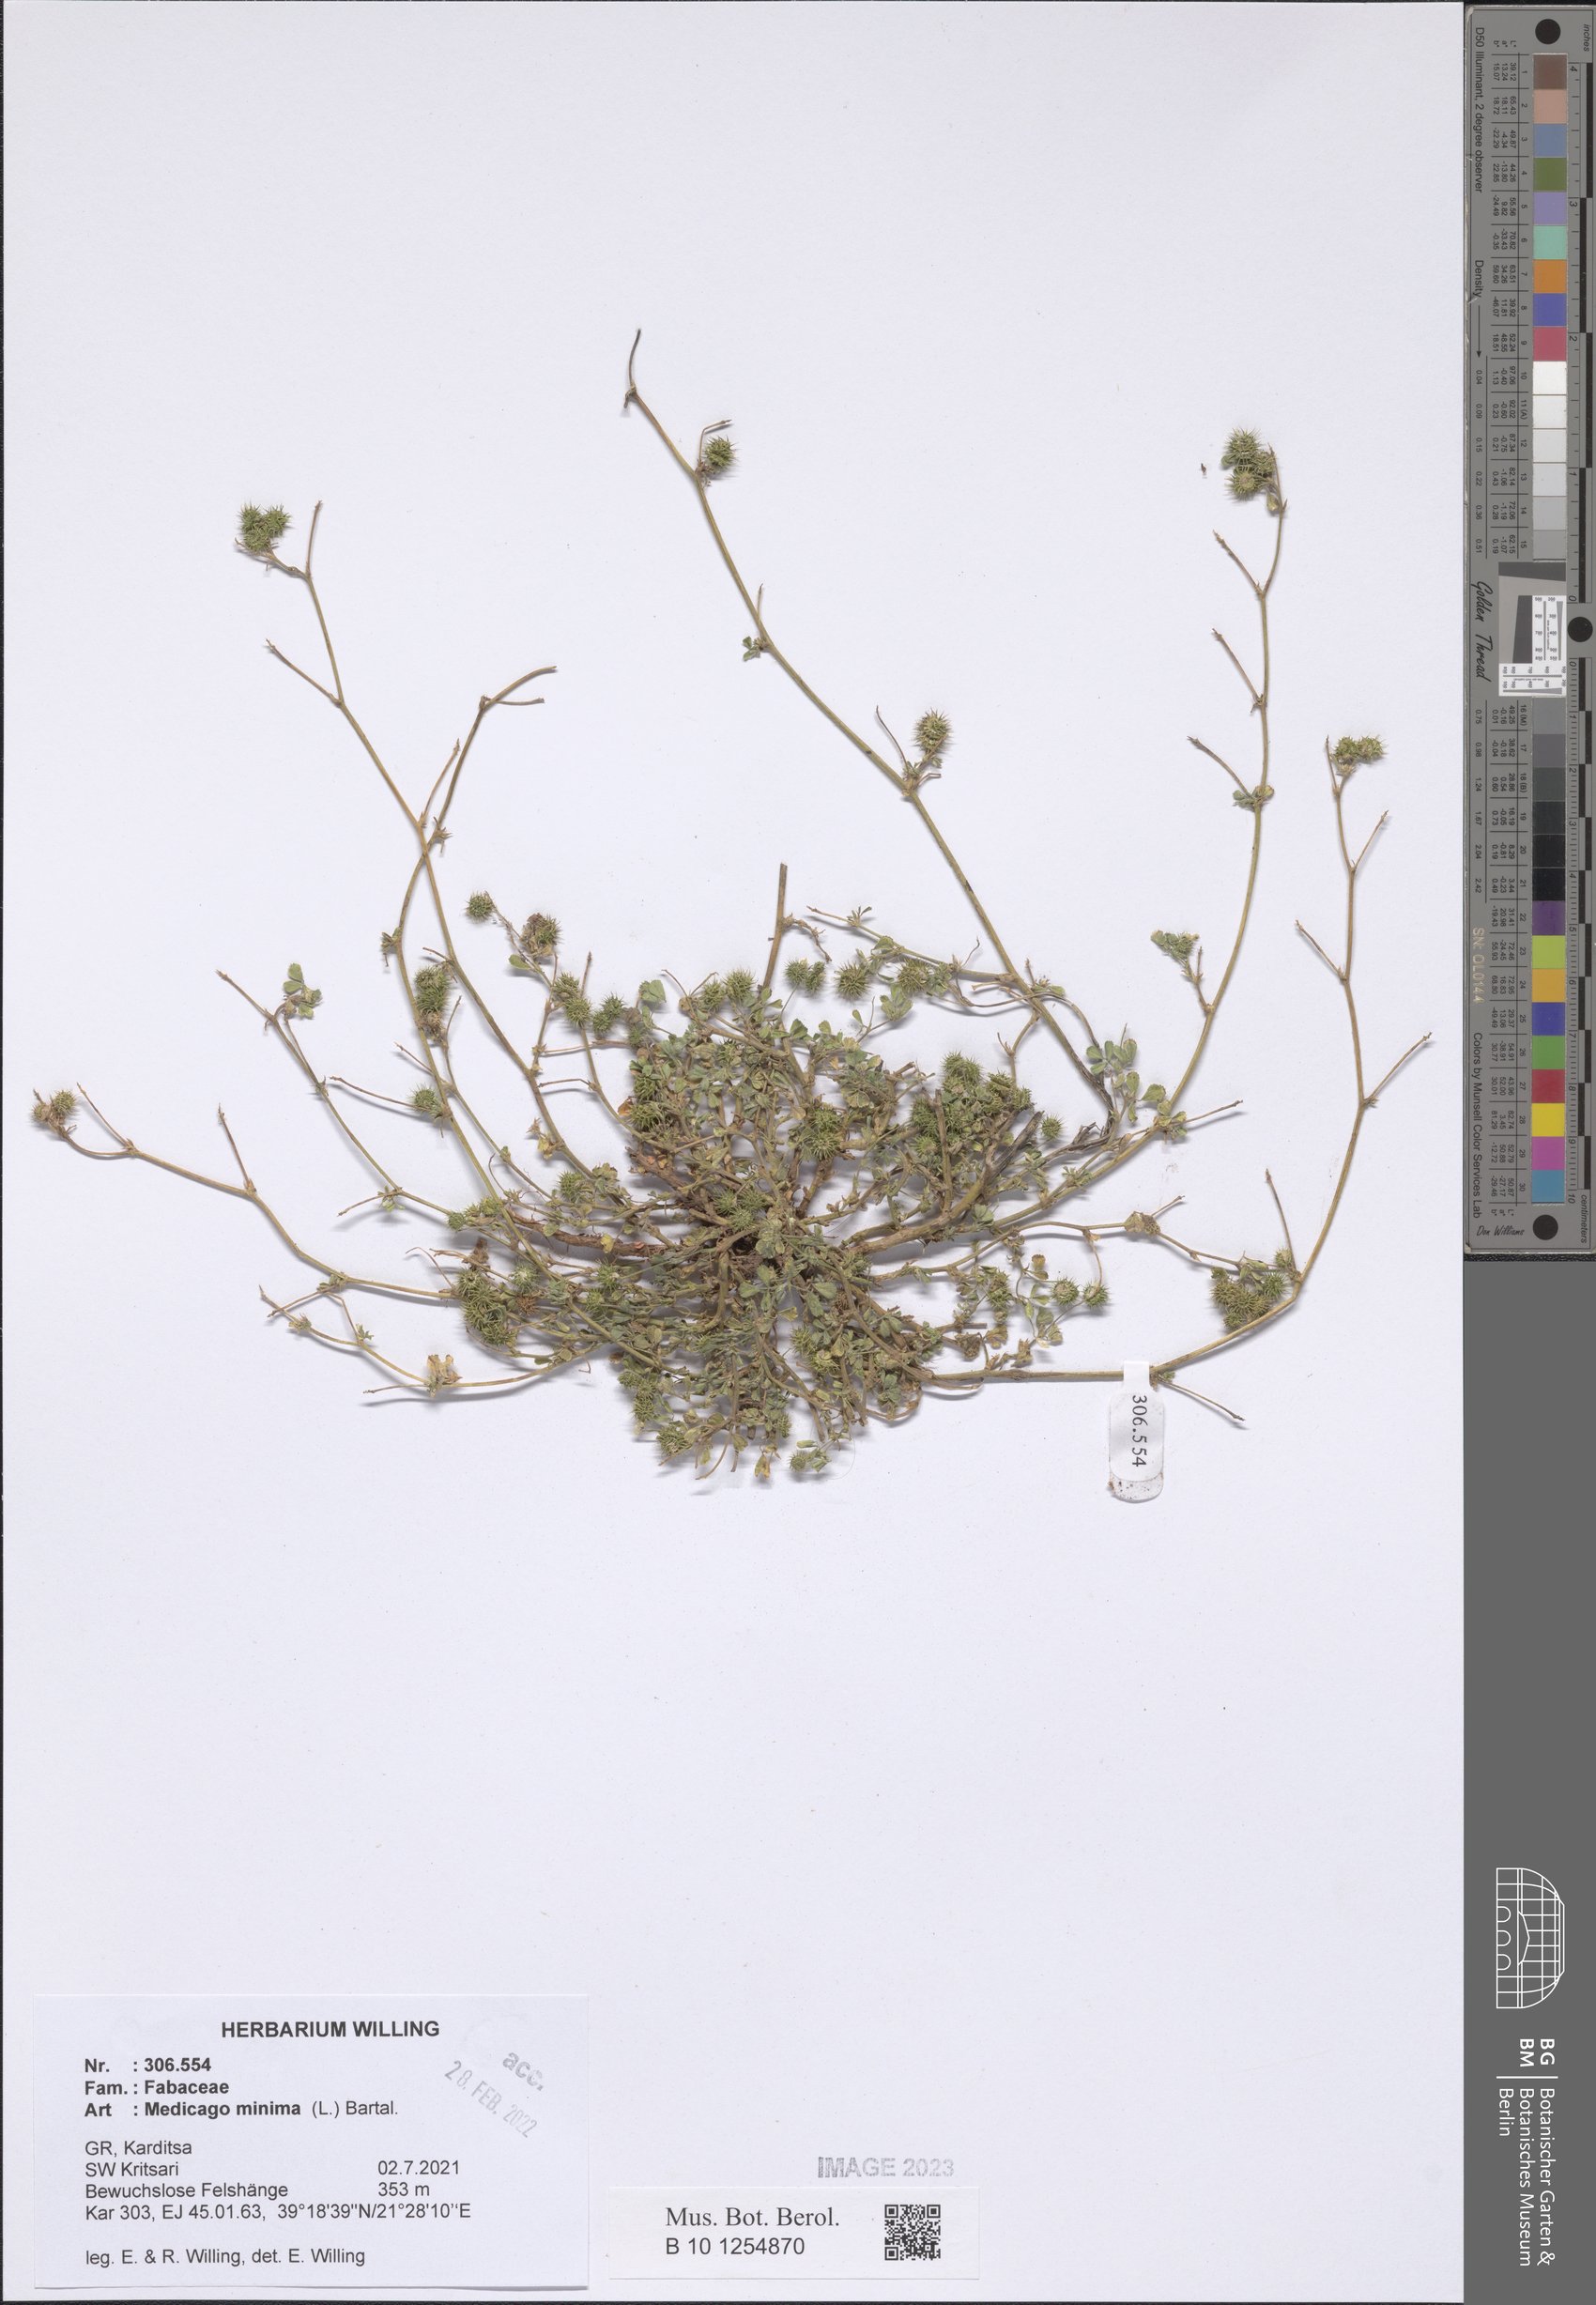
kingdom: Plantae
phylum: Tracheophyta
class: Magnoliopsida
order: Fabales
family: Fabaceae
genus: Medicago
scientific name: Medicago minima
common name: Little bur-clover
